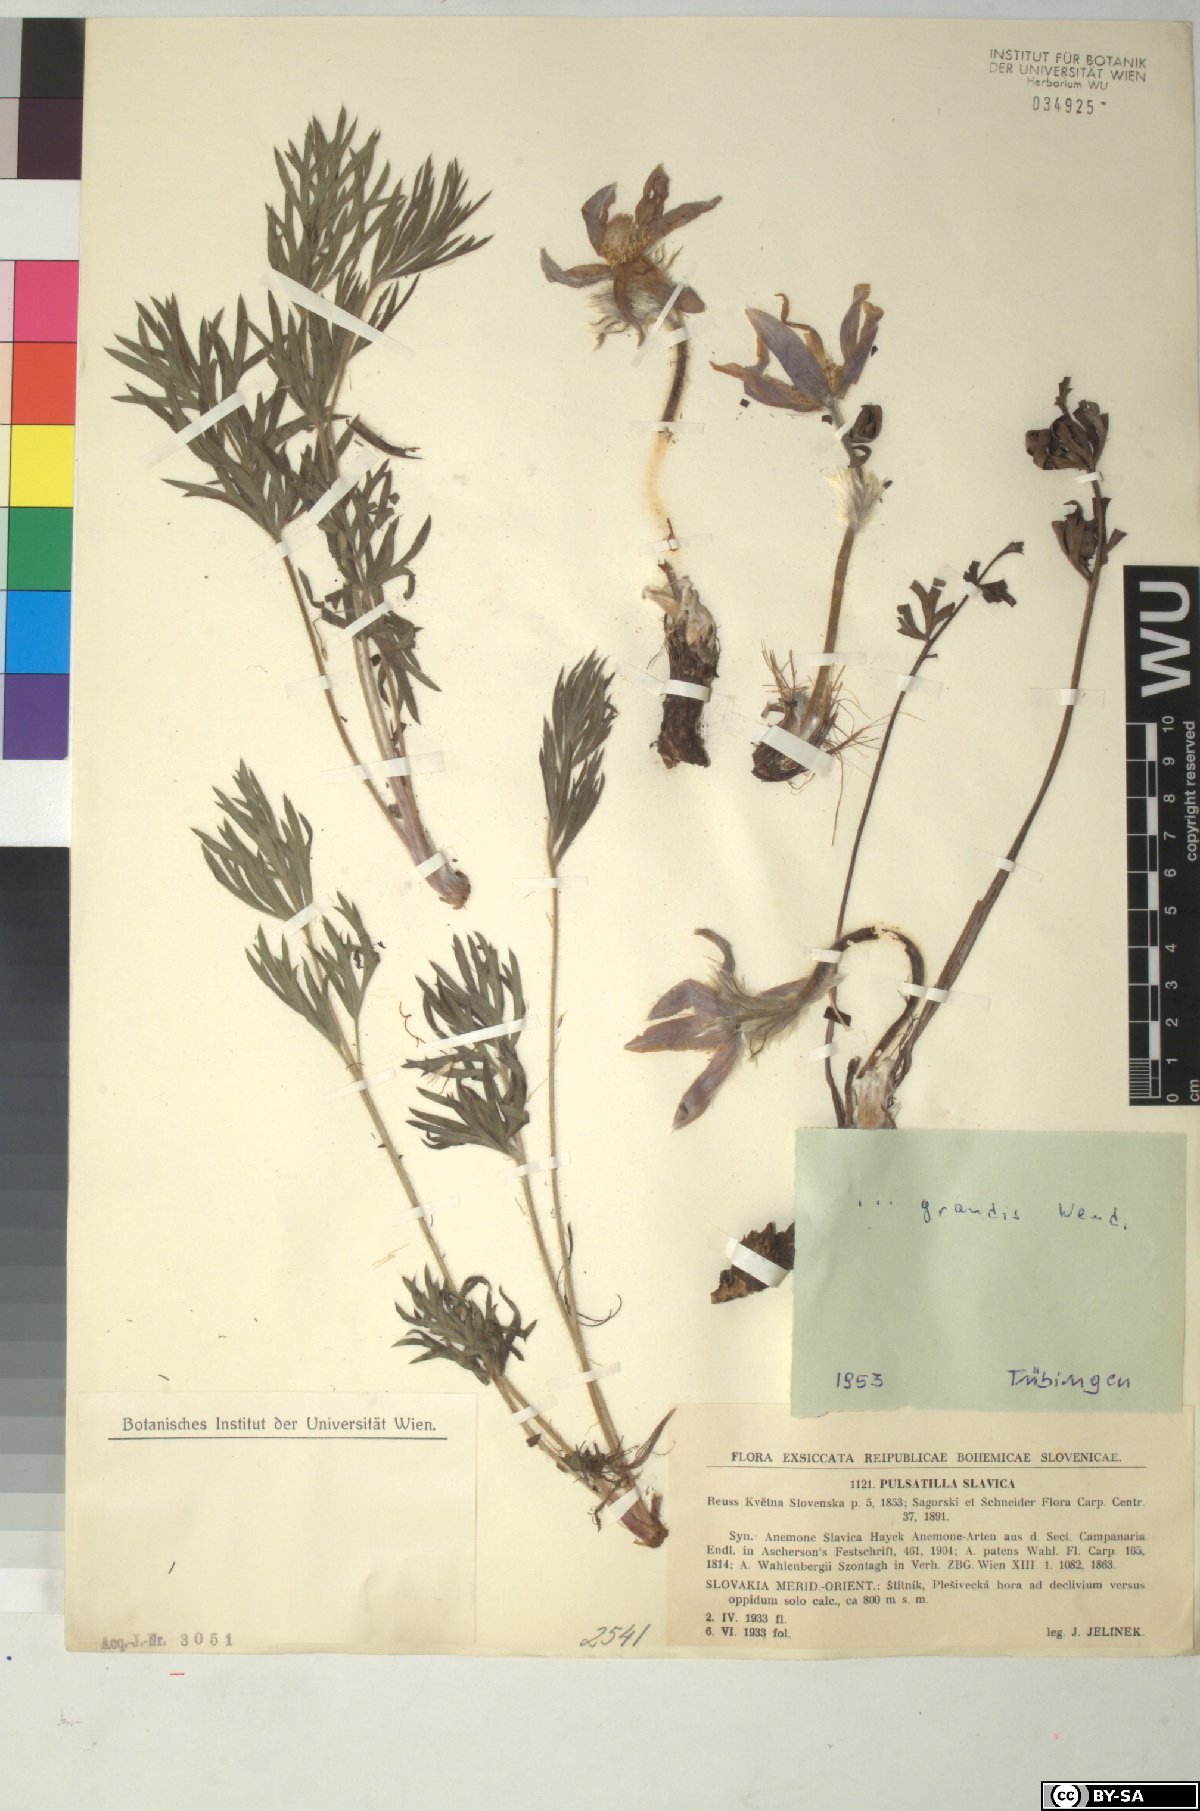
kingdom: Plantae
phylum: Tracheophyta
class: Magnoliopsida
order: Ranunculales
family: Ranunculaceae
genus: Pulsatilla
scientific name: Pulsatilla grandis
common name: Greater pasque flower
